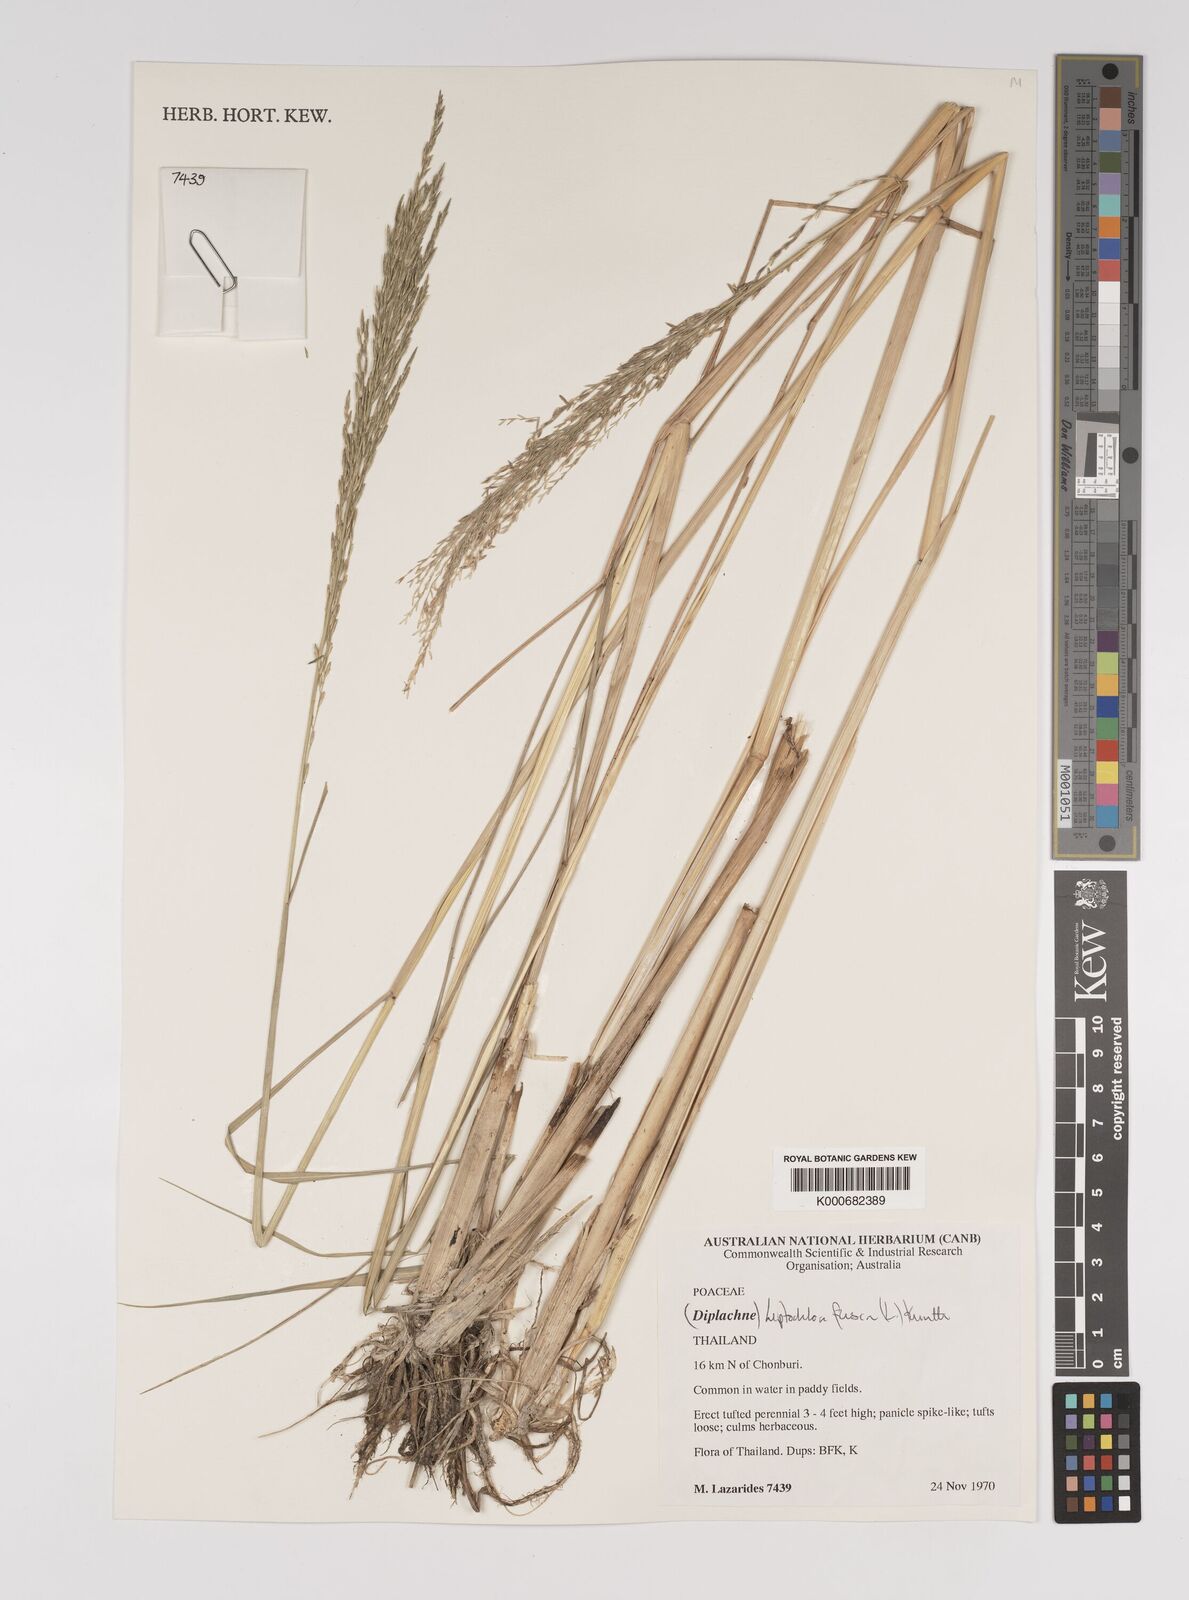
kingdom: Plantae
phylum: Tracheophyta
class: Liliopsida
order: Poales
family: Poaceae
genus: Diplachne
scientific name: Diplachne fusca
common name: Brown beetle grass
